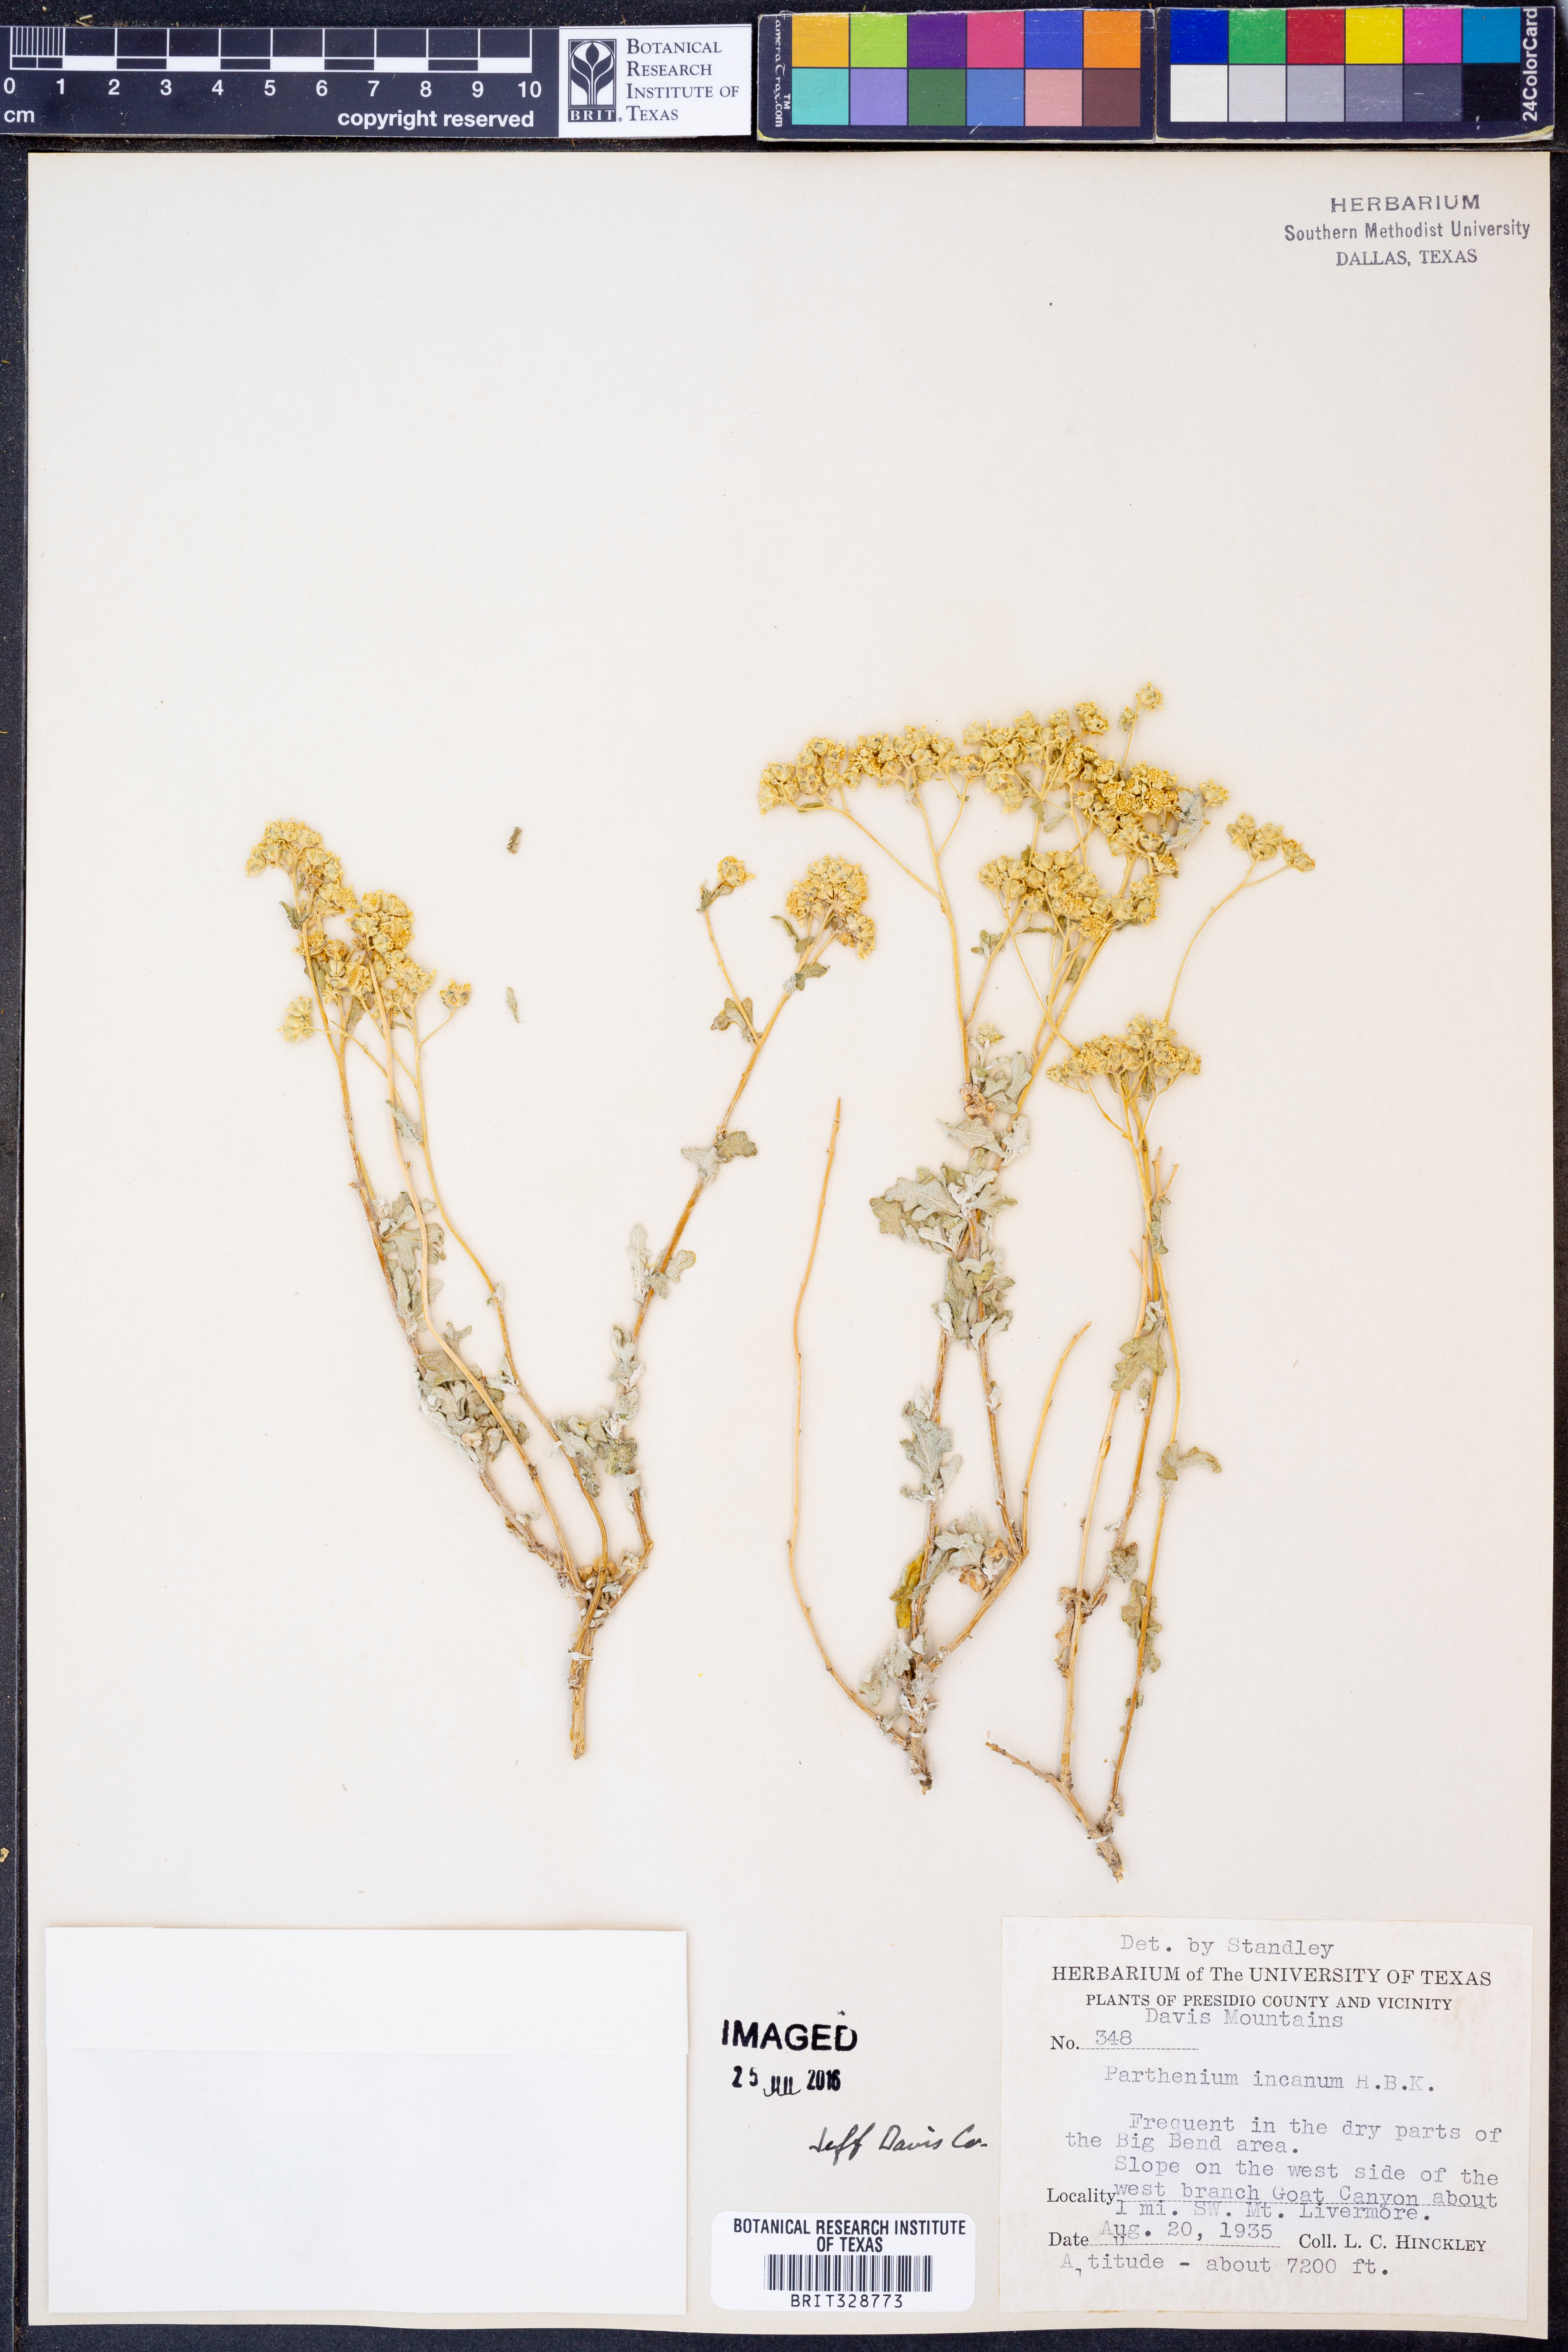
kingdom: Plantae
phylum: Tracheophyta
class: Magnoliopsida
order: Asterales
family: Asteraceae
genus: Parthenium
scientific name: Parthenium incanum
